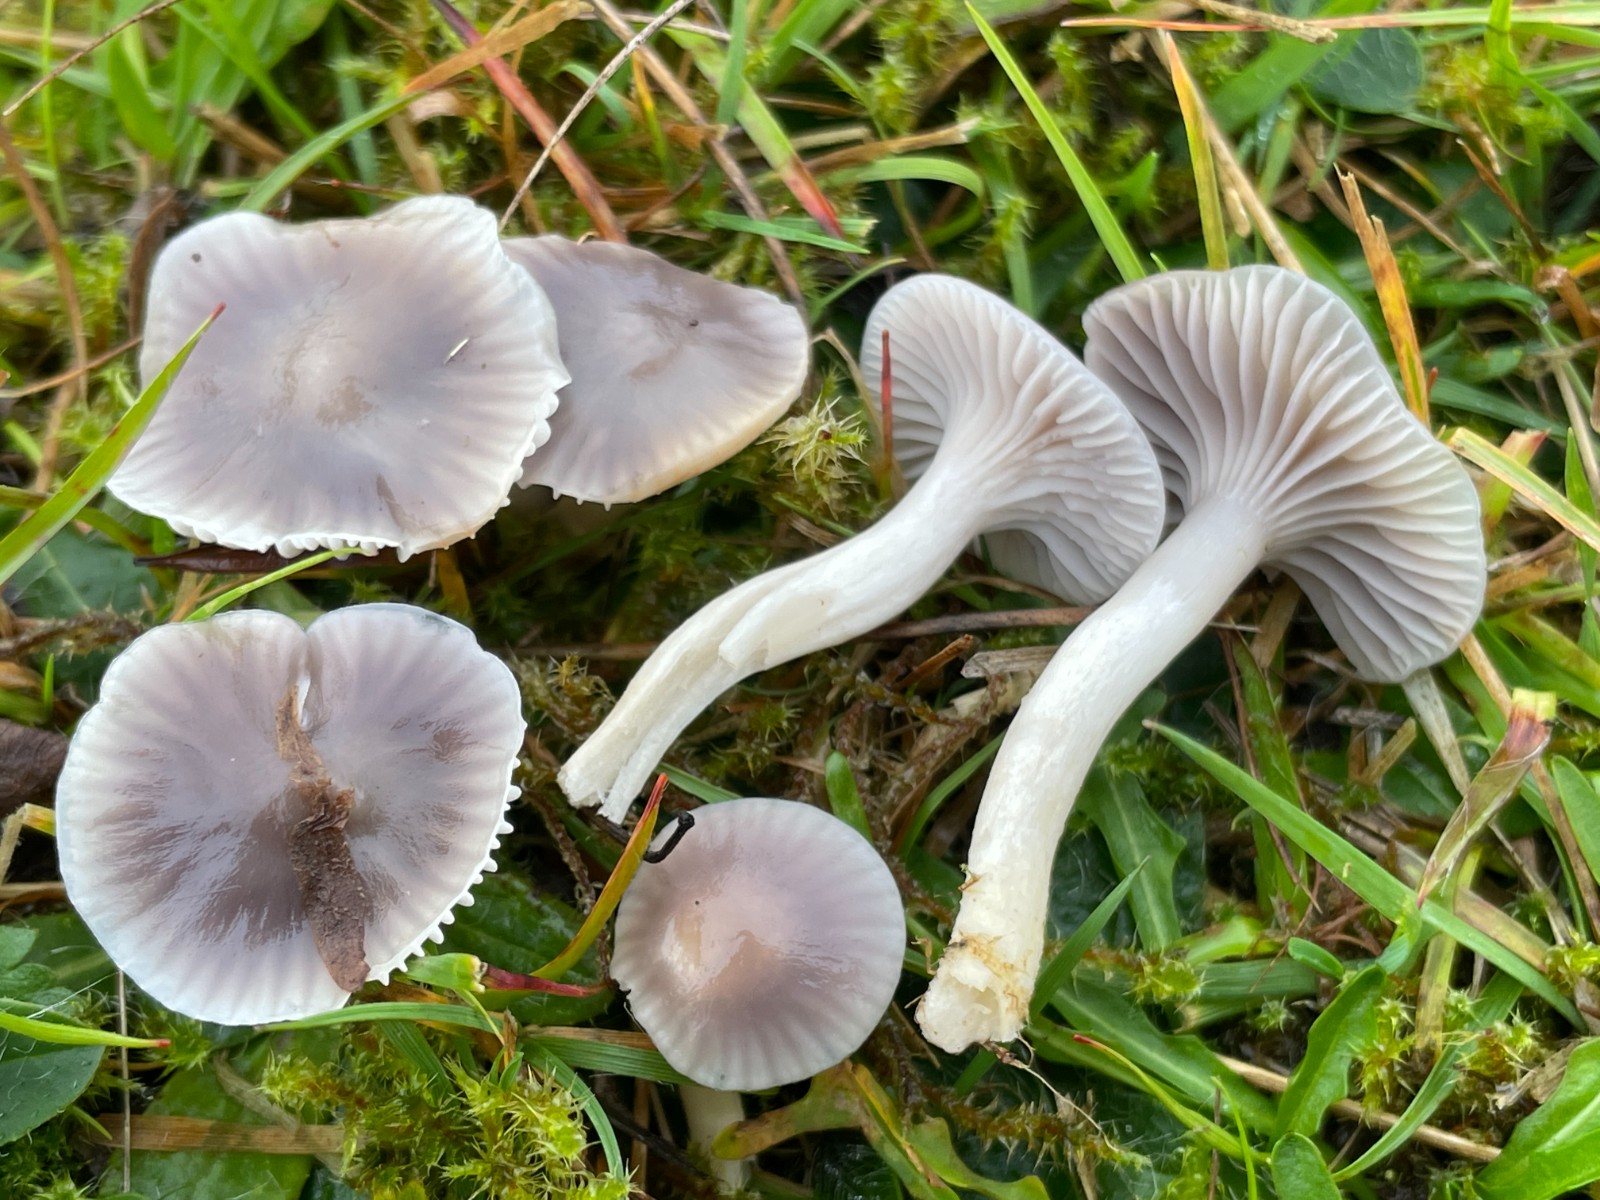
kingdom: Fungi
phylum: Basidiomycota
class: Agaricomycetes
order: Agaricales
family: Hygrophoraceae
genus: Cuphophyllus
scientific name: Cuphophyllus lacmus
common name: gråviolet vokshat
